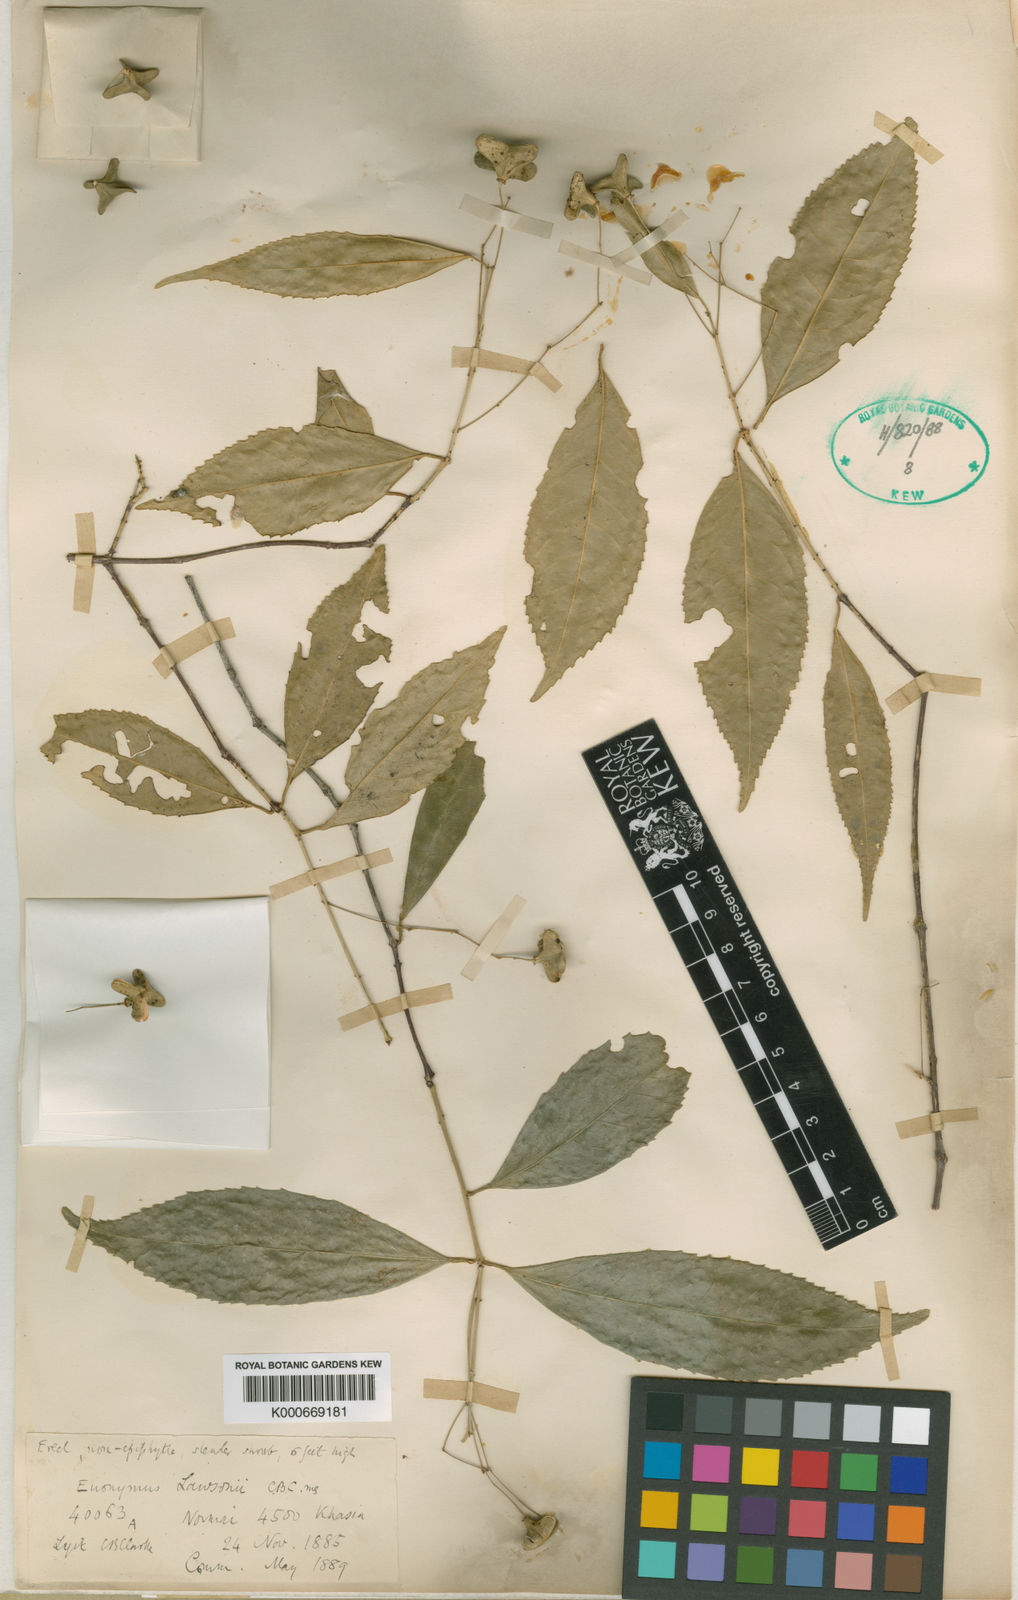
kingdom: Plantae
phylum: Tracheophyta
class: Magnoliopsida
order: Celastrales
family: Celastraceae
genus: Euonymus
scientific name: Euonymus lawsonii
